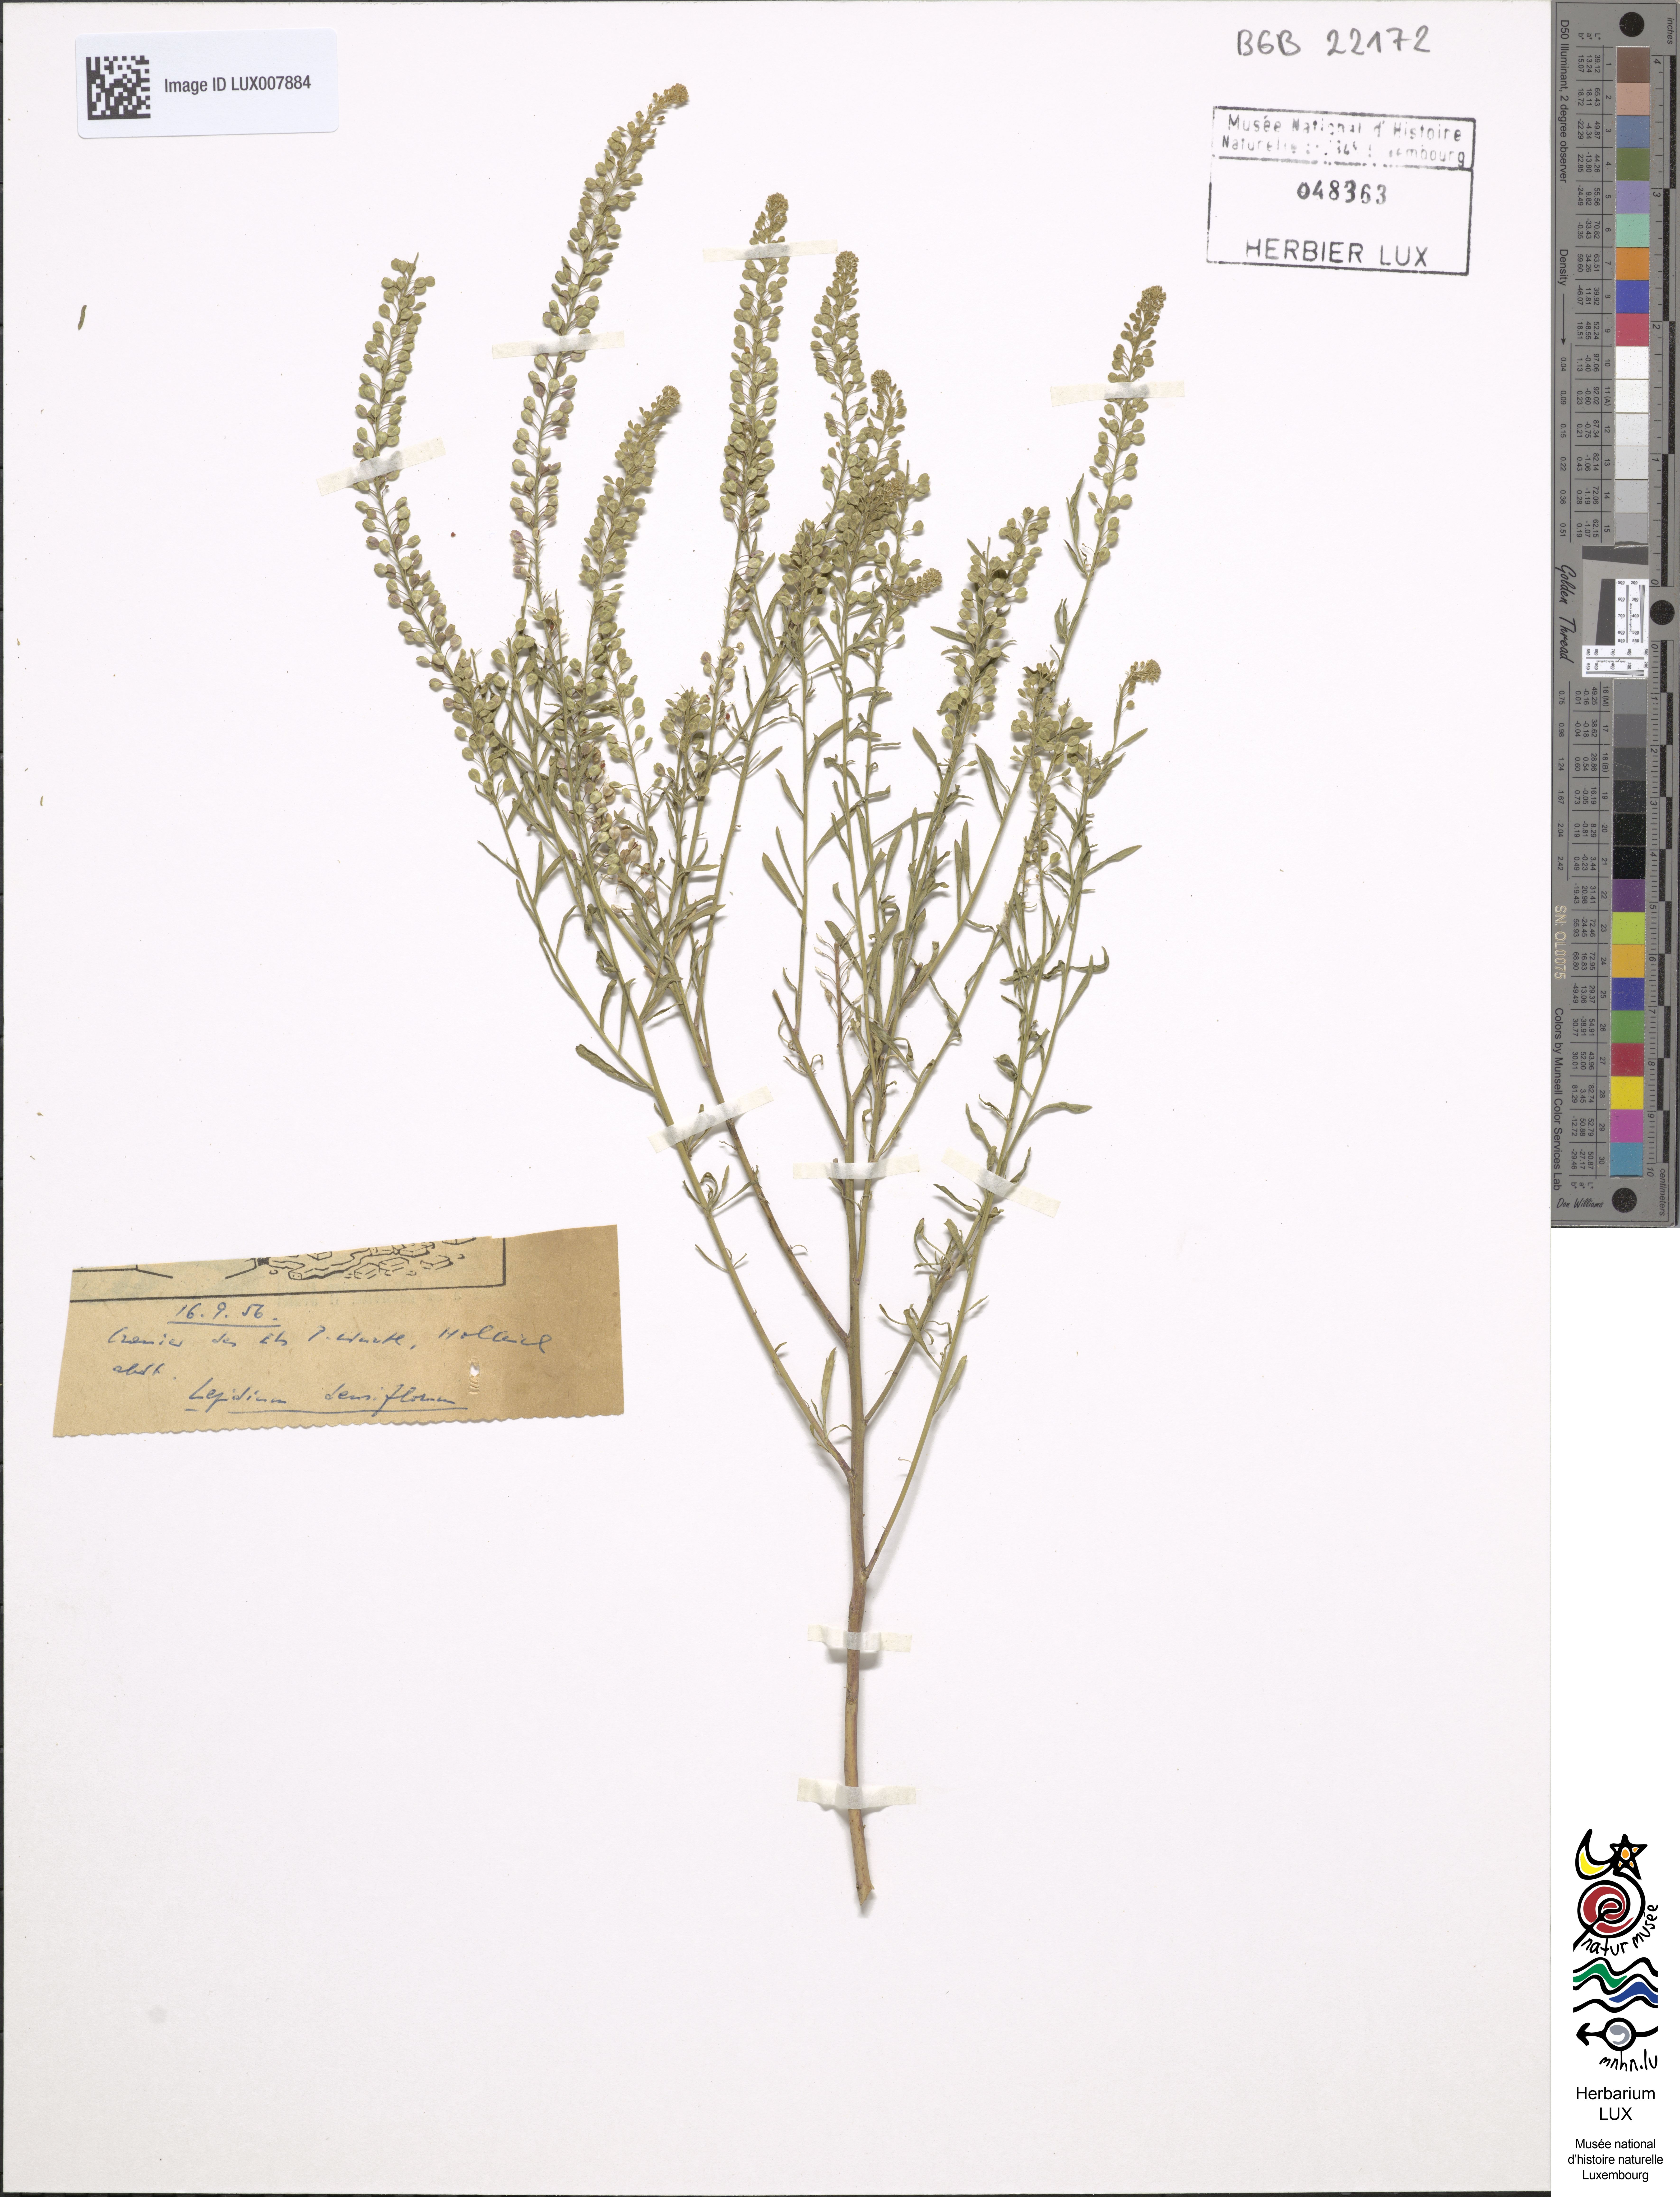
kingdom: Plantae
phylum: Tracheophyta
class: Magnoliopsida
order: Brassicales
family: Brassicaceae
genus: Lepidium
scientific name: Lepidium densiflorum
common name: Miner's pepperwort
